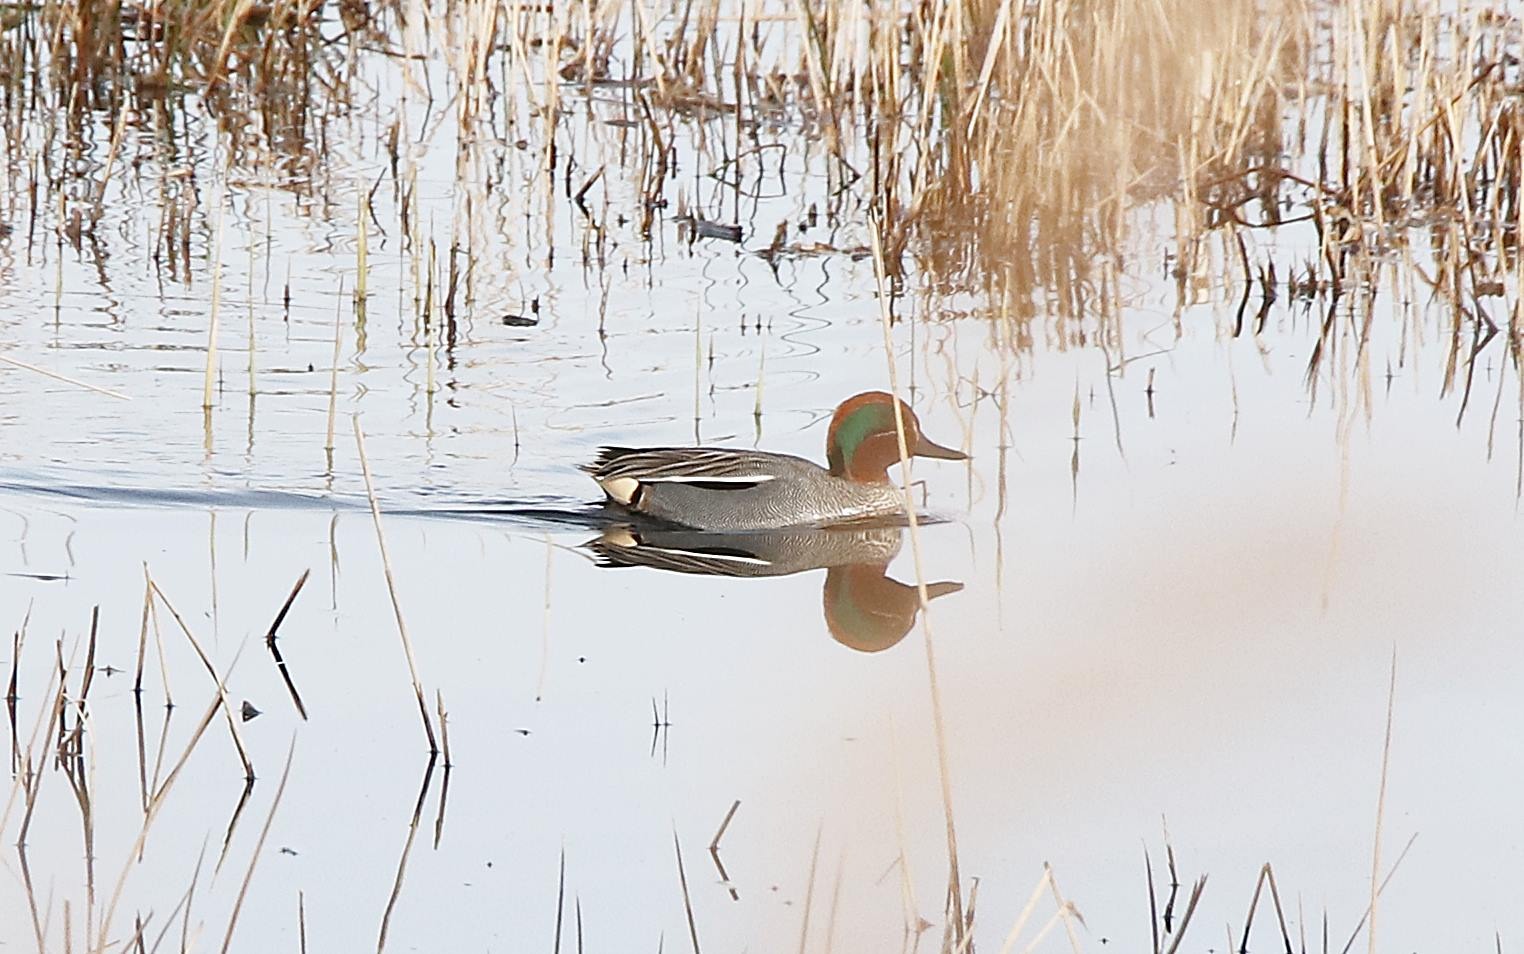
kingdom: Animalia
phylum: Chordata
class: Aves
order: Anseriformes
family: Anatidae
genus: Anas
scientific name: Anas crecca
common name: Krikand
